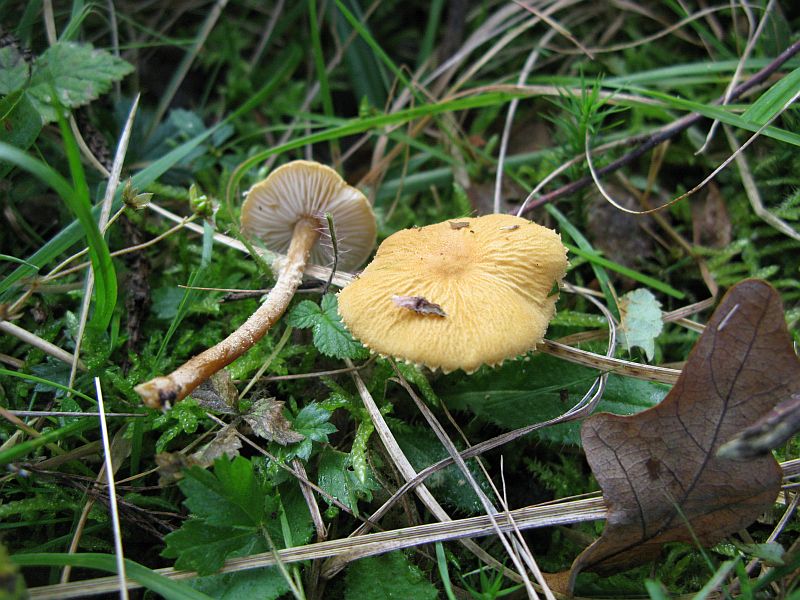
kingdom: Fungi
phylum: Basidiomycota
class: Agaricomycetes
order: Agaricales
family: Tricholomataceae
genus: Cystoderma
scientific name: Cystoderma amianthinum
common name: okkergul grynhat
